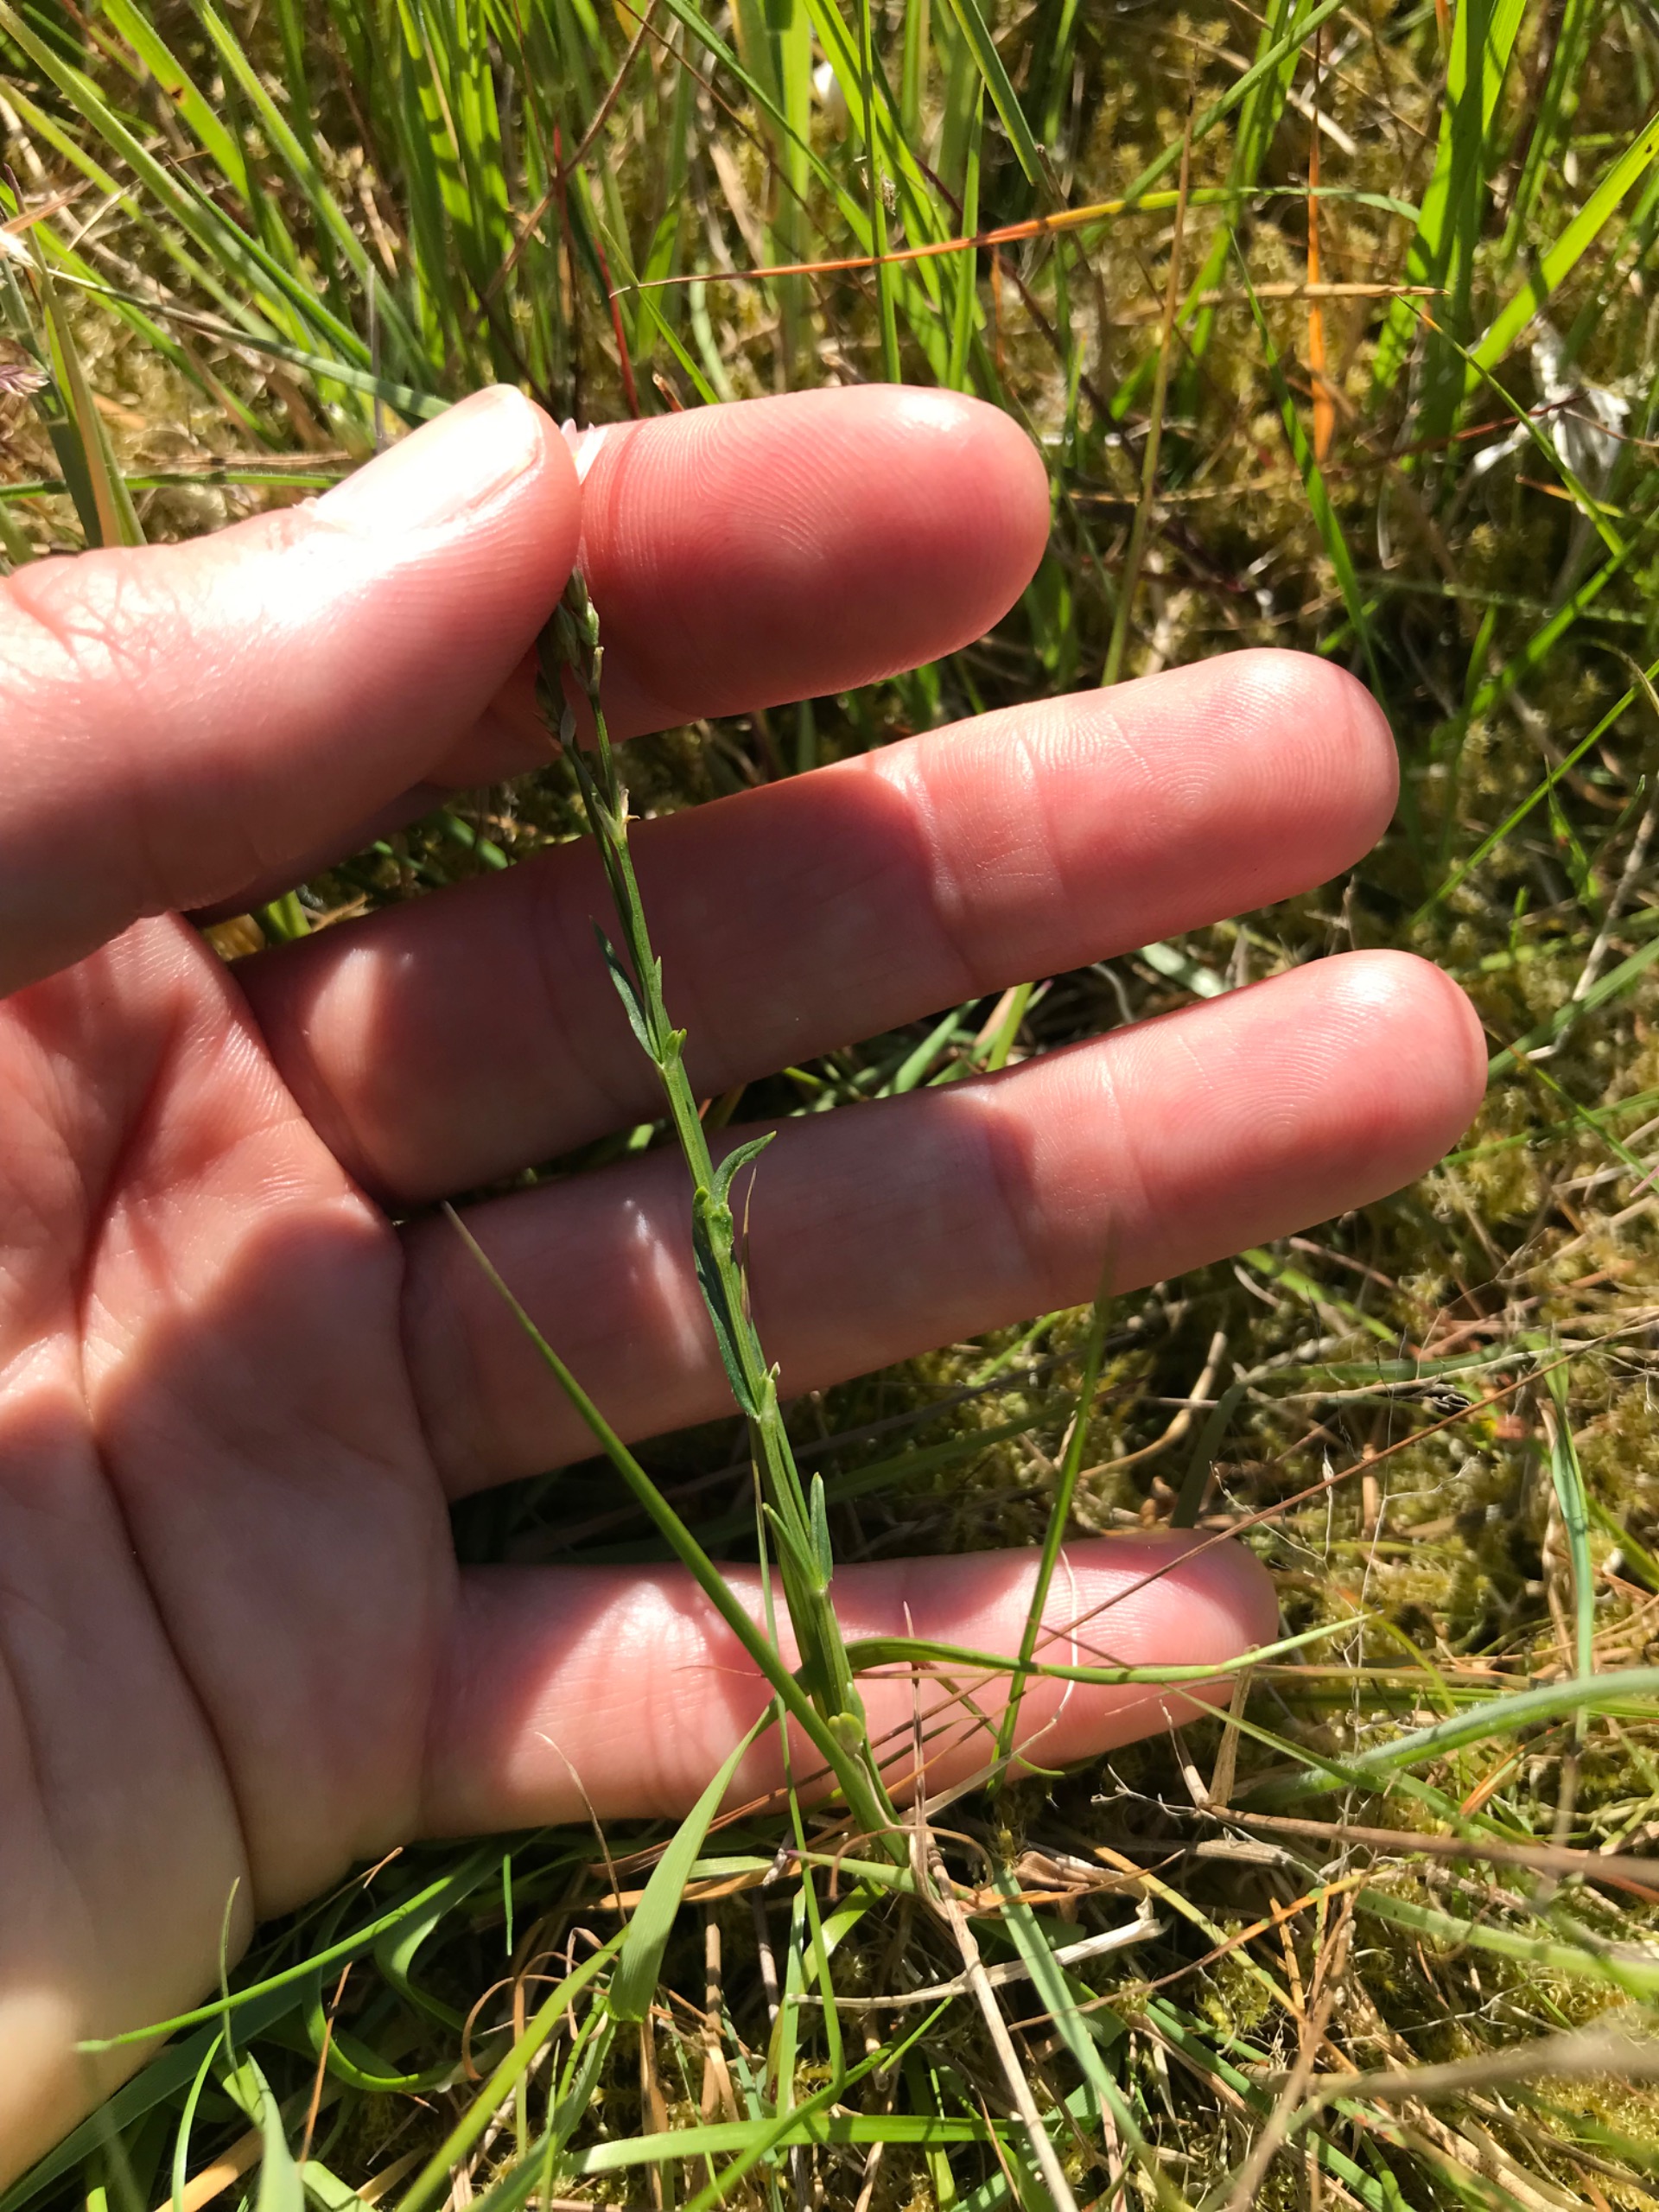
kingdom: Plantae
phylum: Tracheophyta
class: Magnoliopsida
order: Caryophyllales
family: Caryophyllaceae
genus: Stellaria
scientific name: Stellaria graminea
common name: Græsbladet fladstjerne
